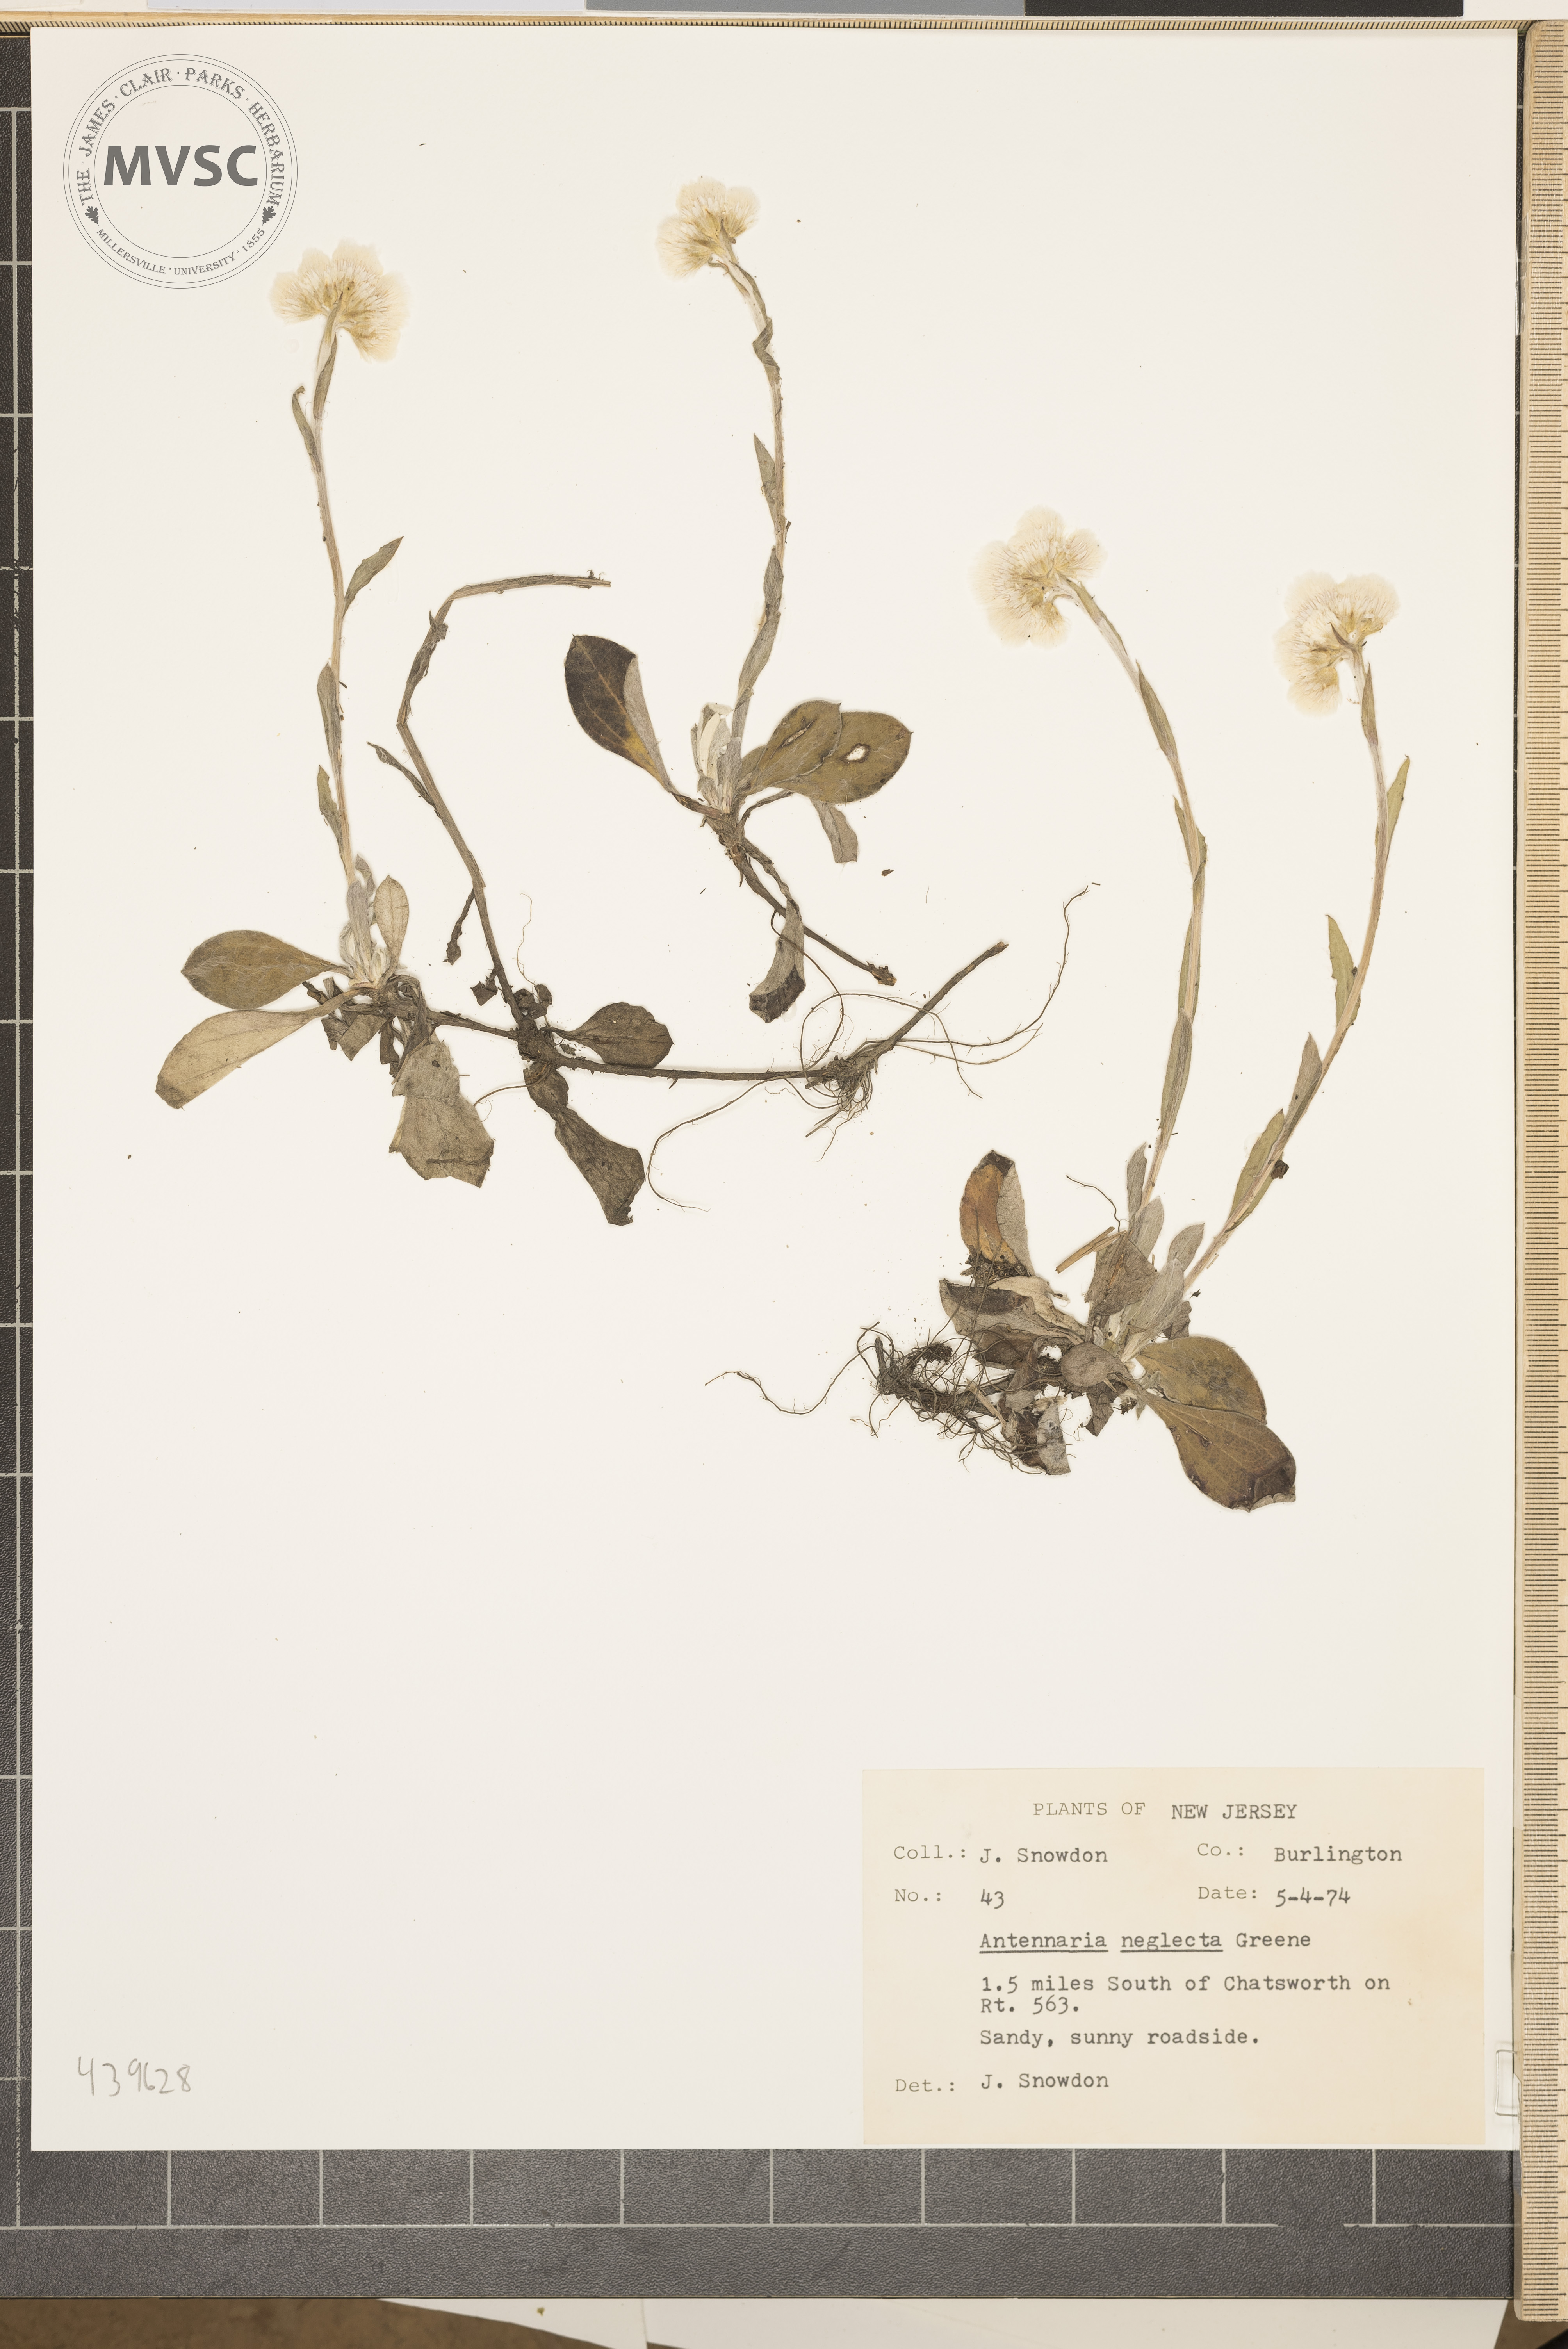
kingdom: Plantae
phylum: Tracheophyta
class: Magnoliopsida
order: Asterales
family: Asteraceae
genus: Antennaria
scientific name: Antennaria neglecta
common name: Field pussytoes
